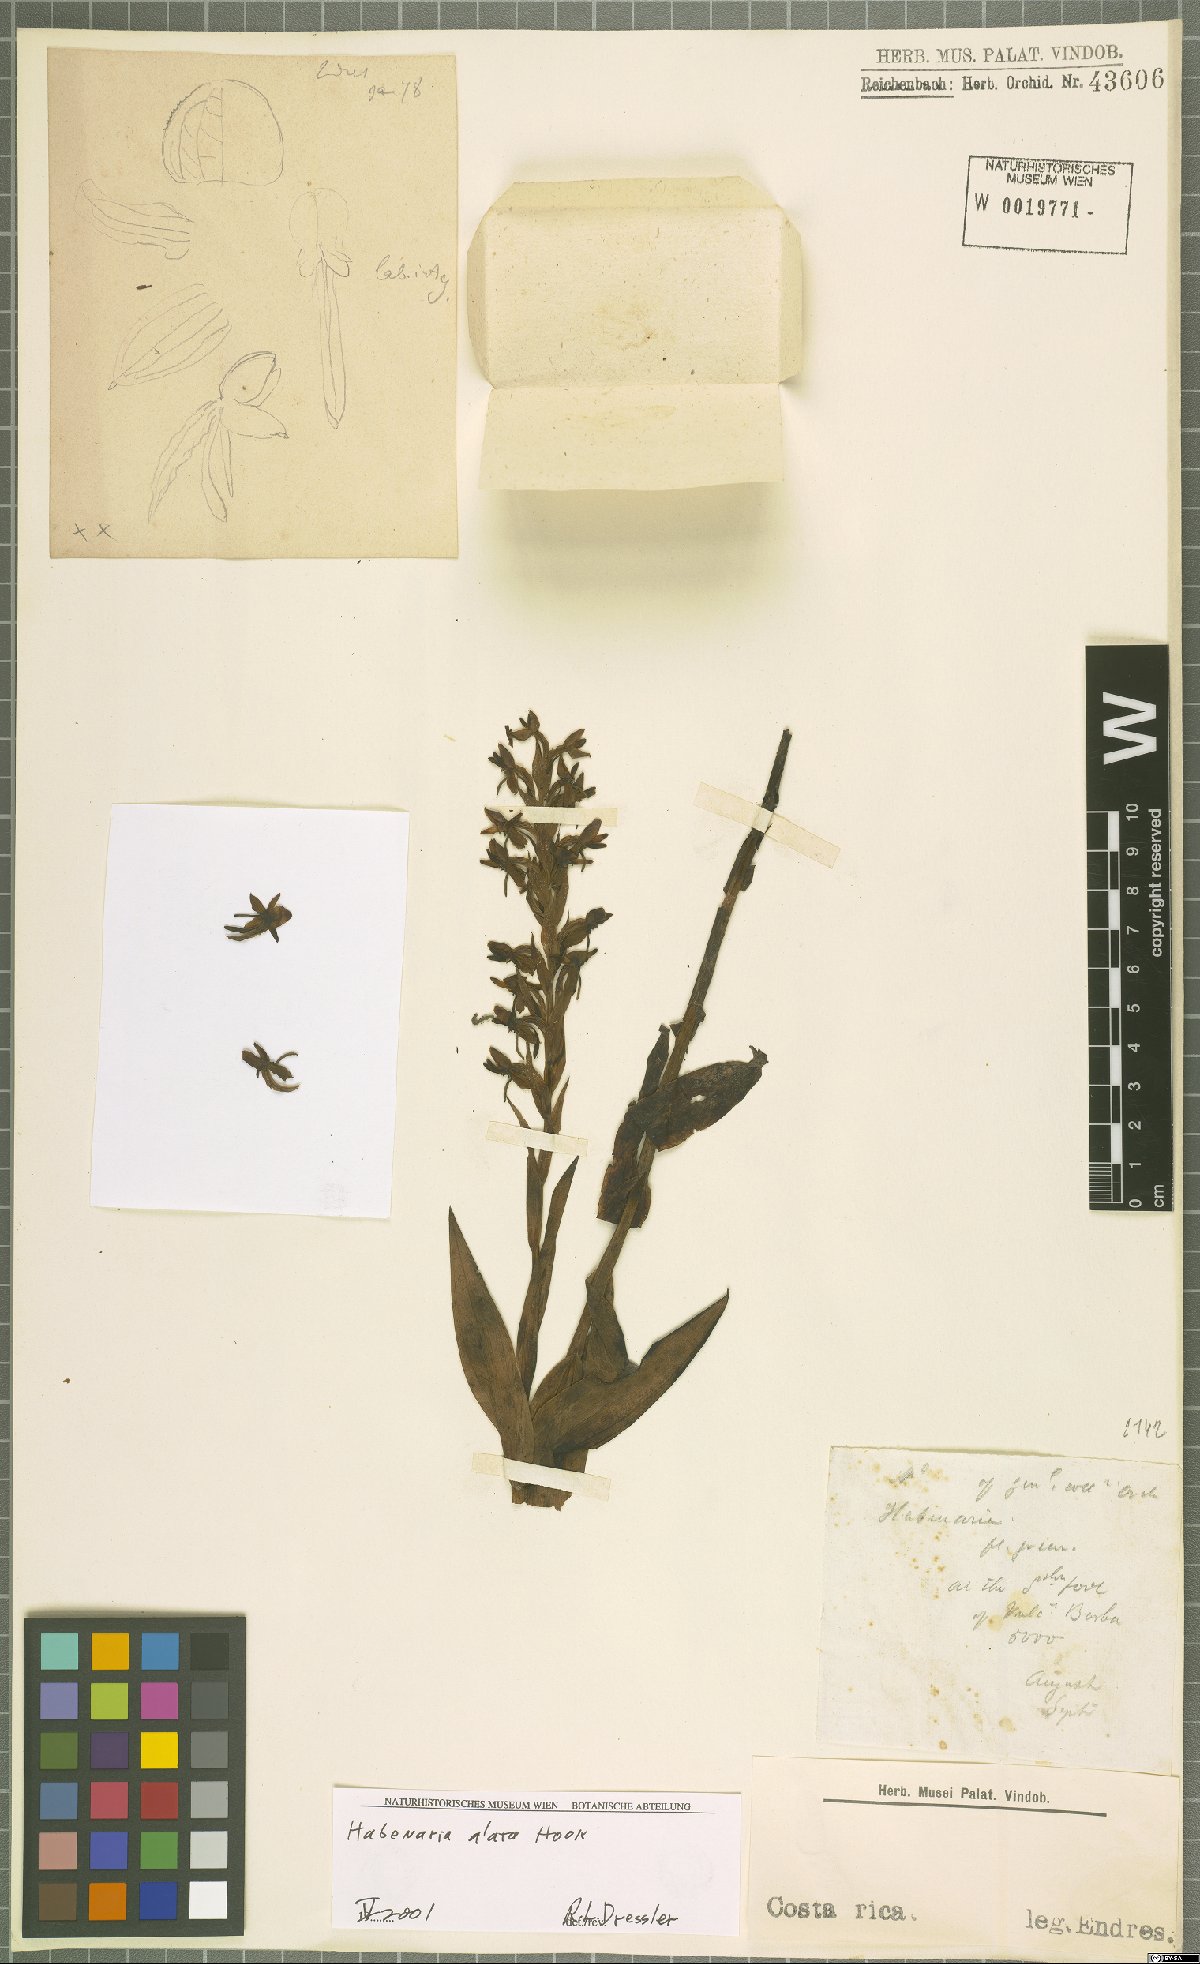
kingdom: Plantae
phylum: Tracheophyta
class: Liliopsida
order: Asparagales
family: Orchidaceae
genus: Habenaria
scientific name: Habenaria alata
